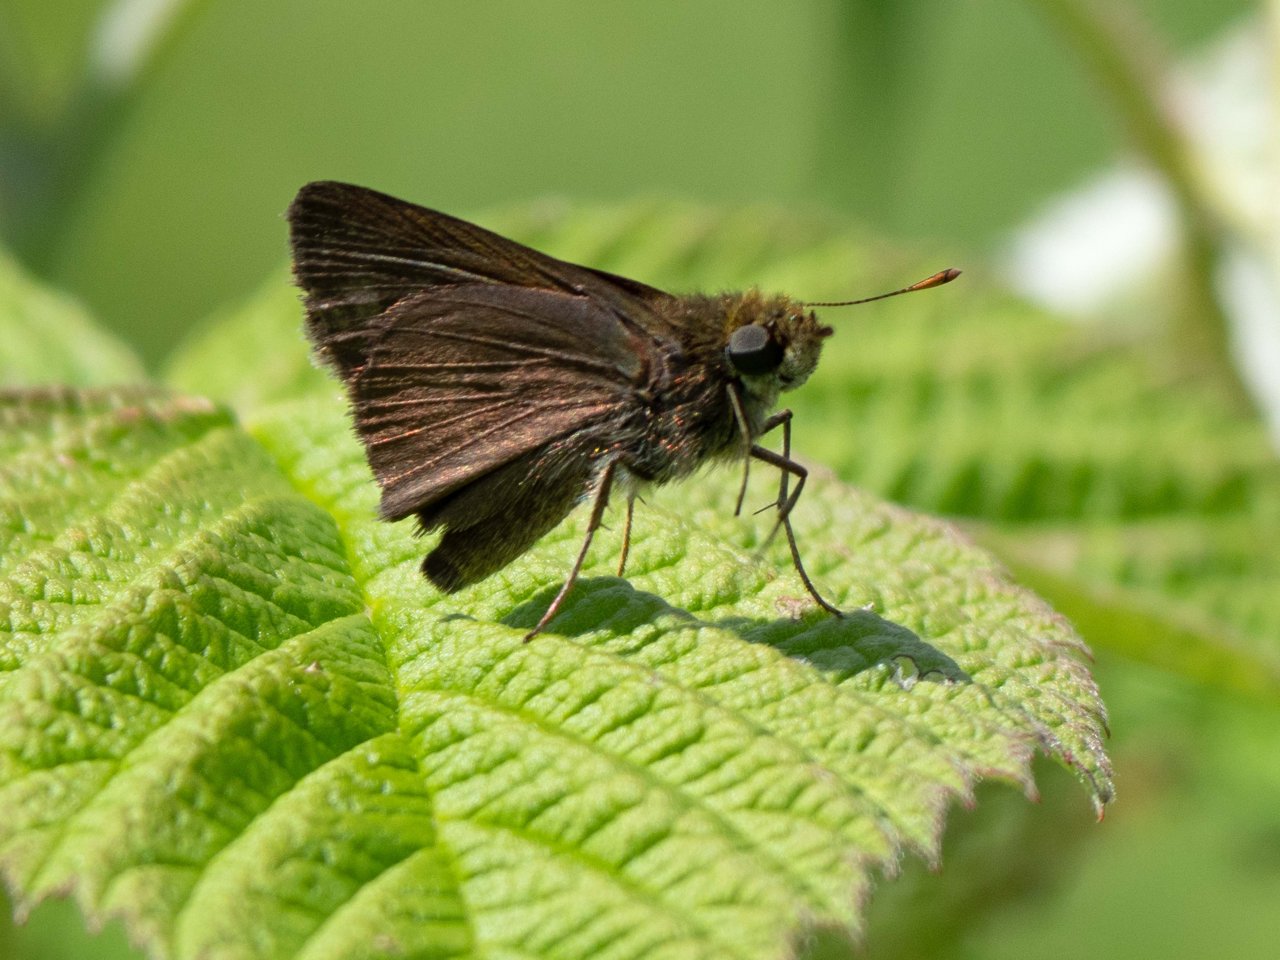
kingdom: Animalia
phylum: Arthropoda
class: Insecta
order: Lepidoptera
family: Hesperiidae
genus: Euphyes
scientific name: Euphyes vestris
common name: Dun Skipper
